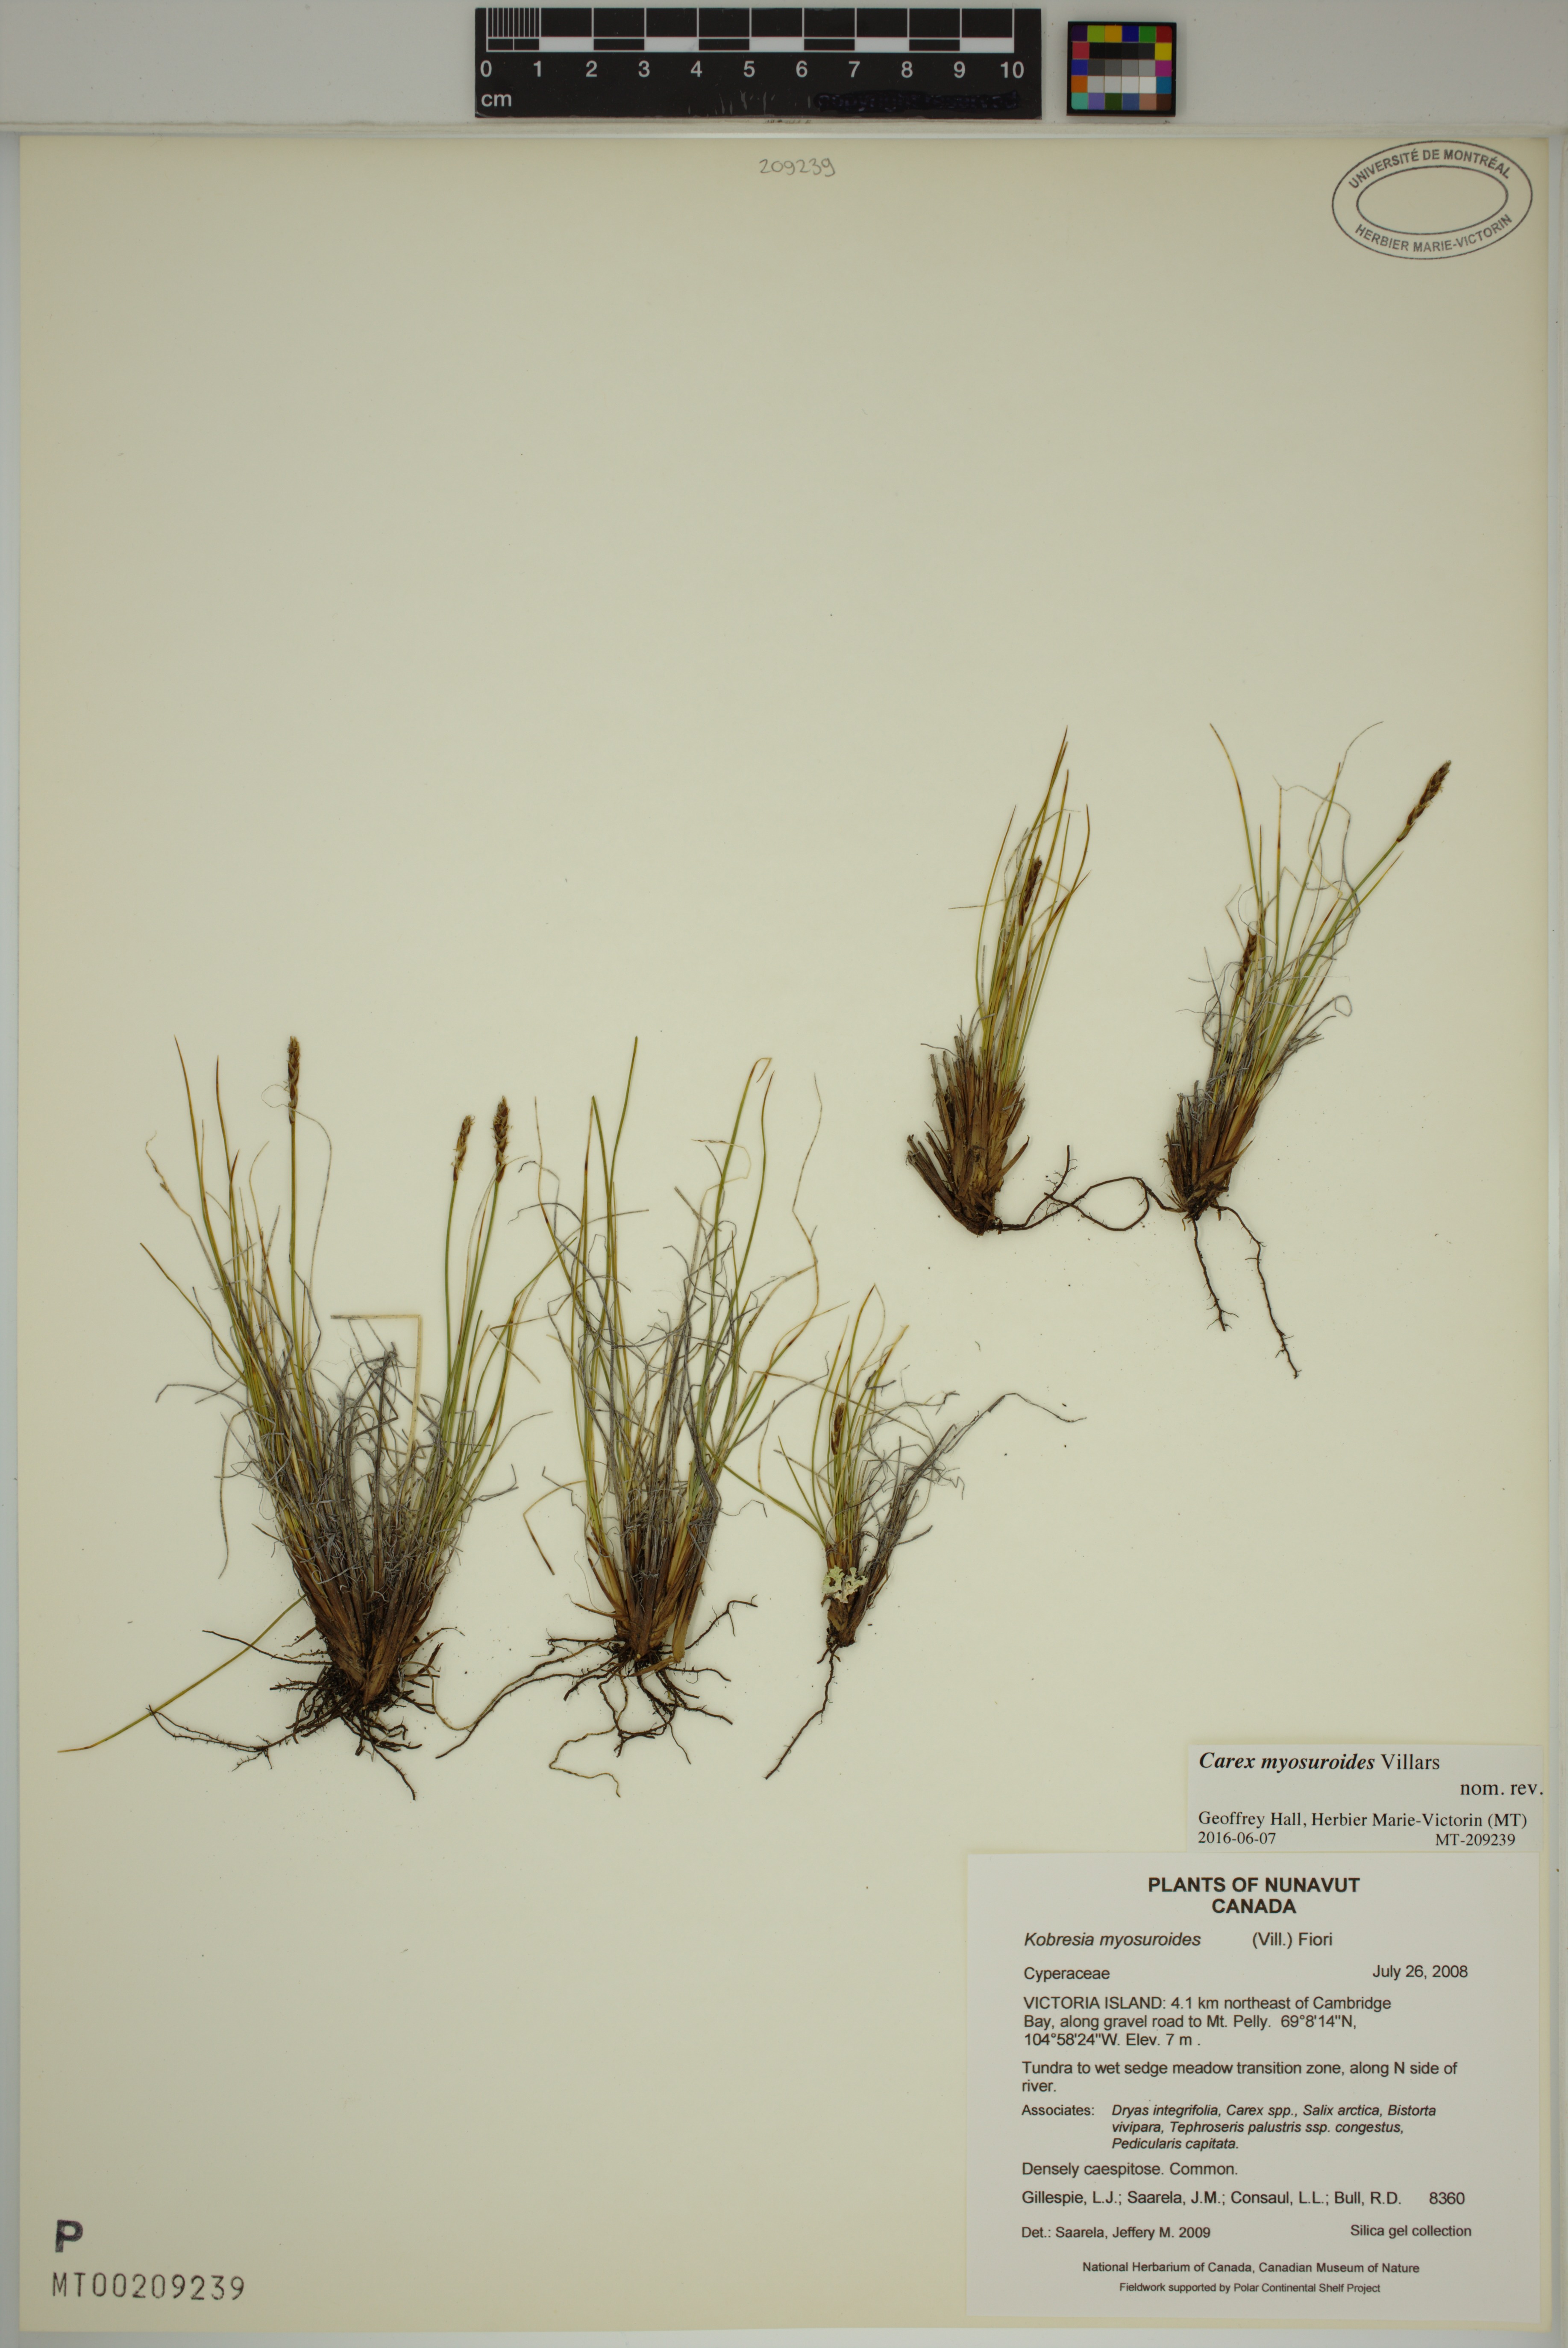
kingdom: Plantae
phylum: Tracheophyta
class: Liliopsida
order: Poales
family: Cyperaceae
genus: Carex
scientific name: Carex myosuroides
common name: Bellard's bog sedge
